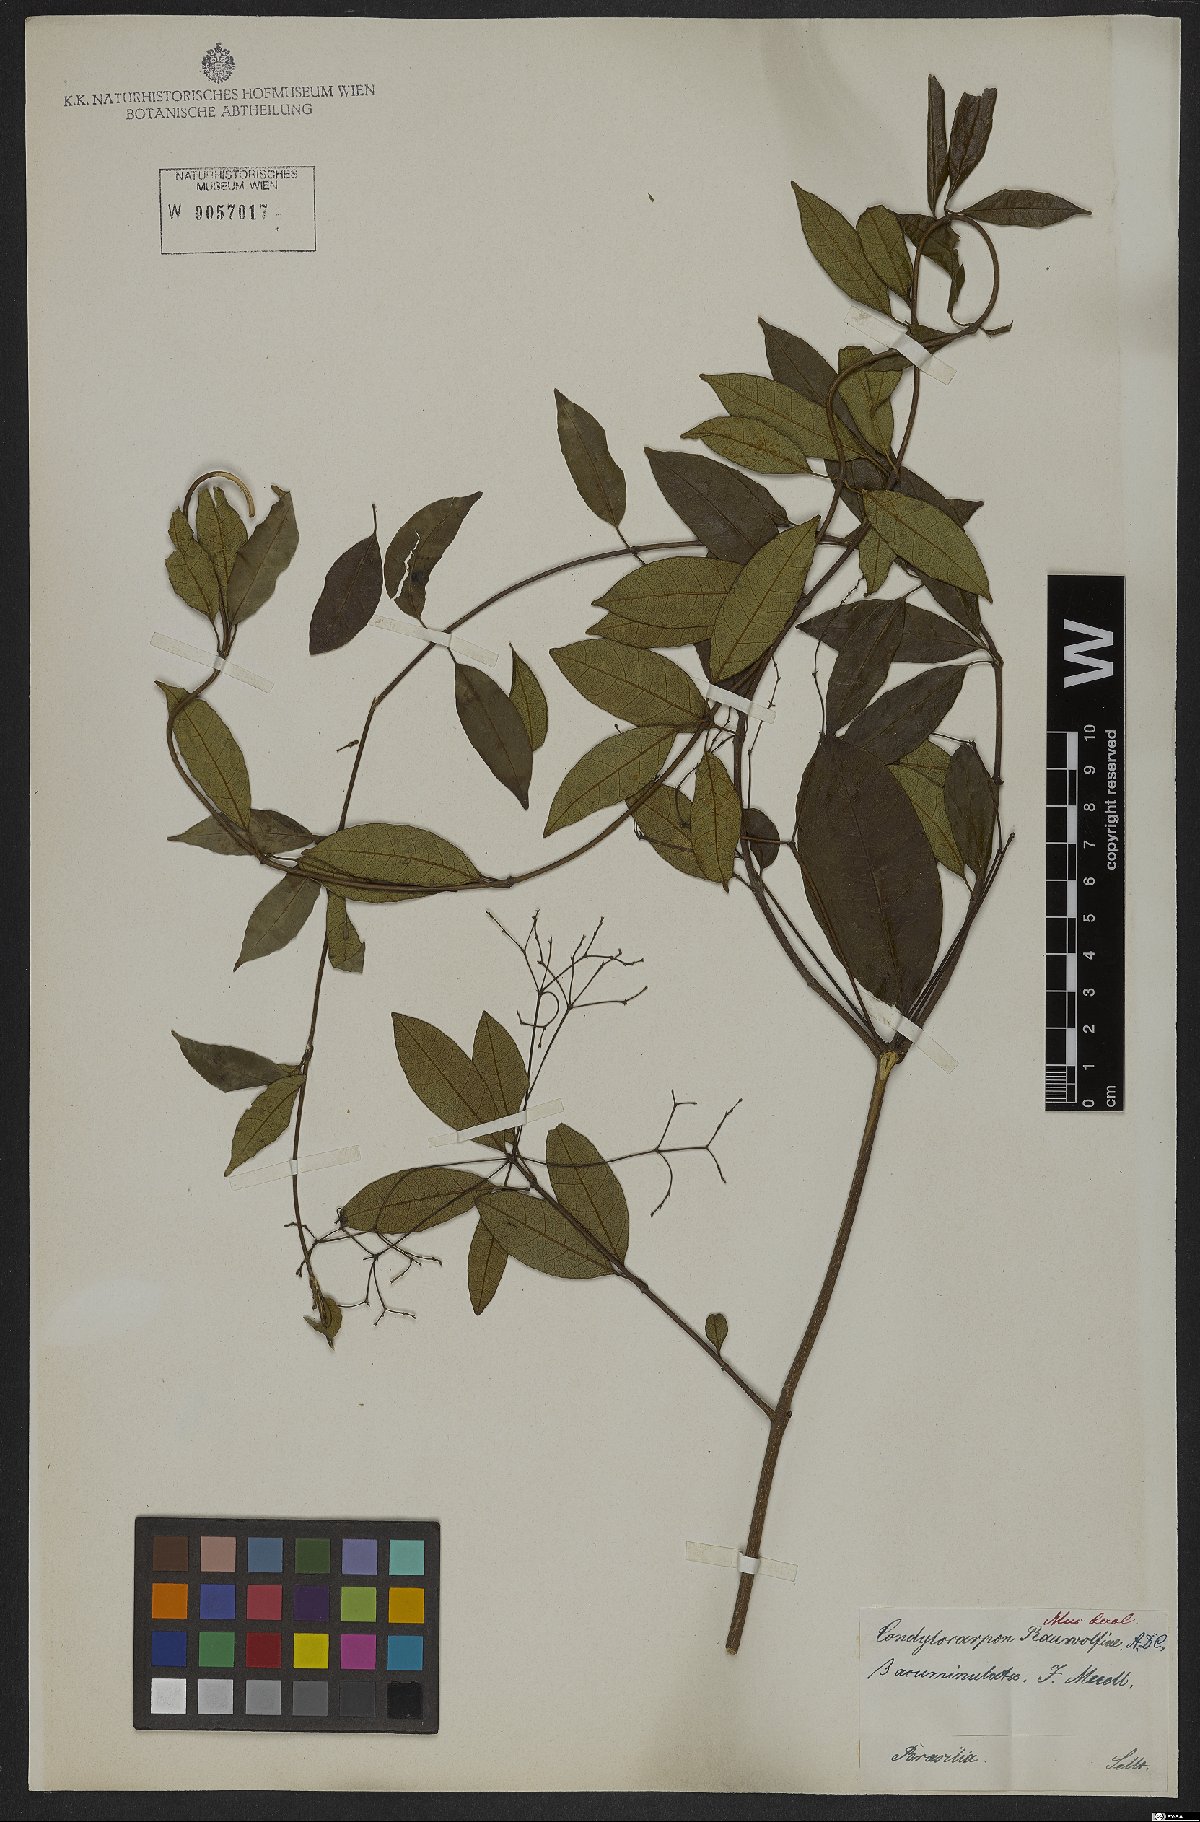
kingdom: Plantae
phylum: Tracheophyta
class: Magnoliopsida
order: Gentianales
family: Apocynaceae
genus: Condylocarpon
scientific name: Condylocarpon isthmicum
